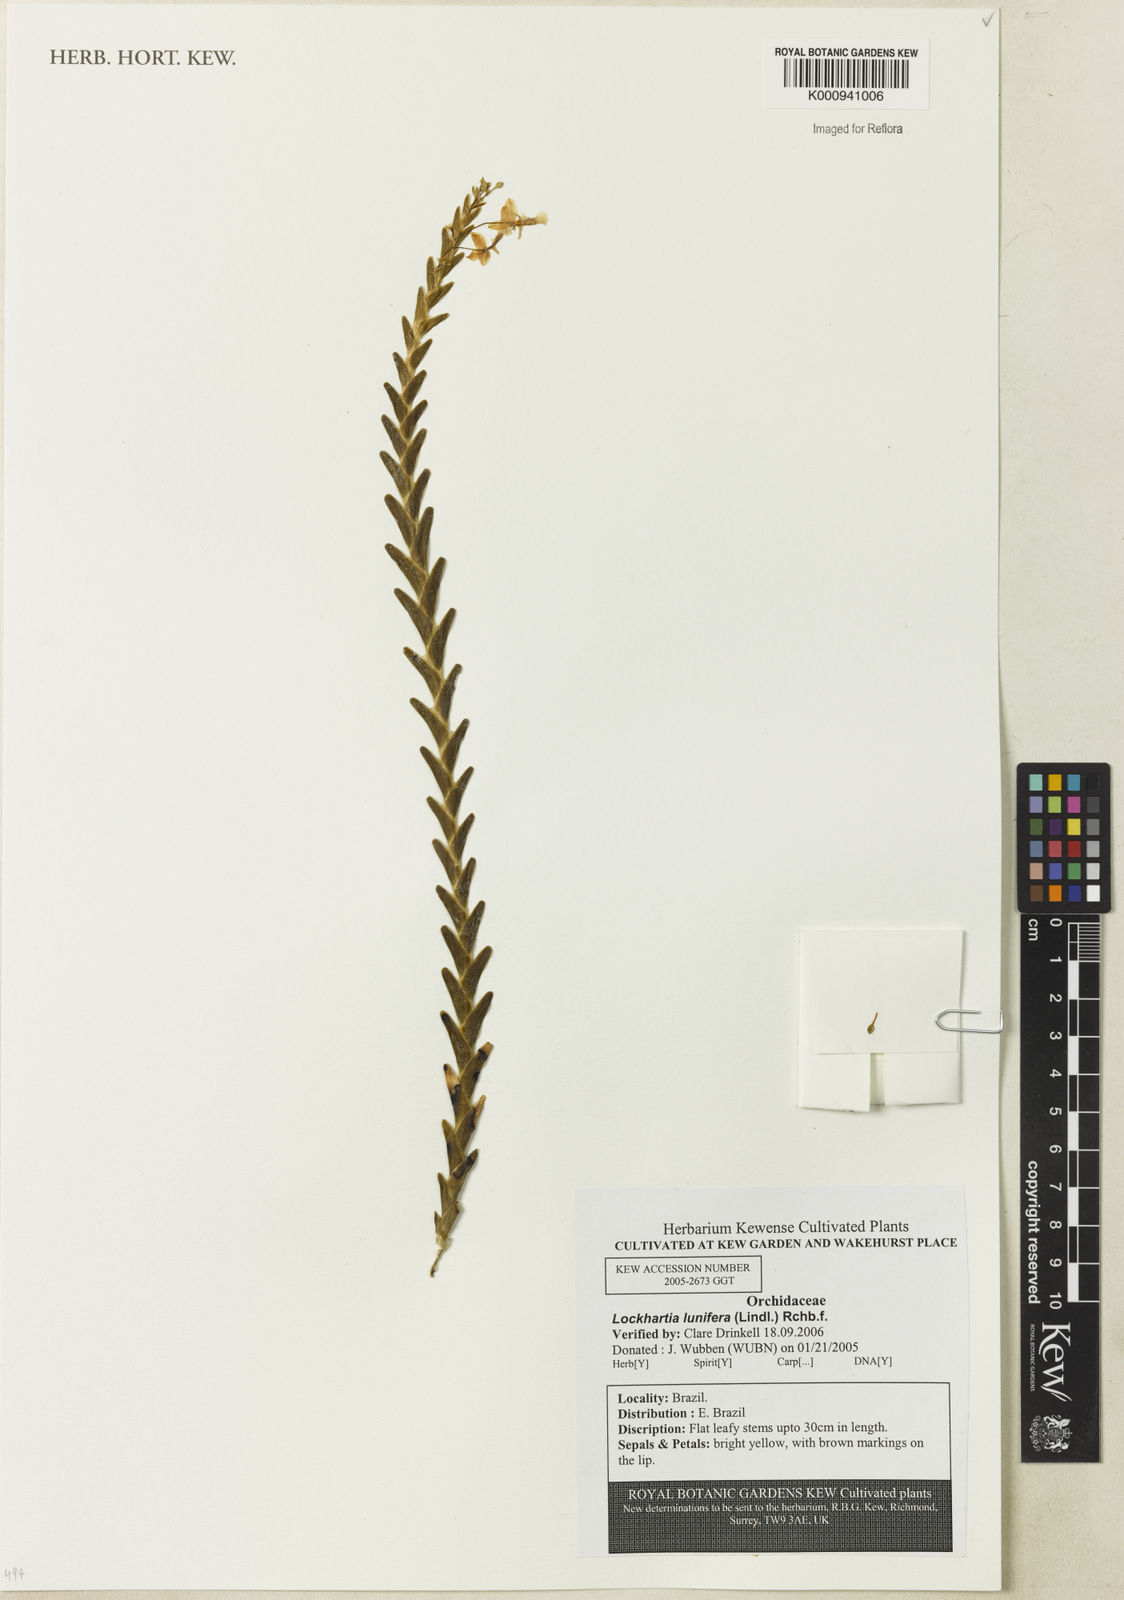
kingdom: Plantae
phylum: Tracheophyta
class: Liliopsida
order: Asparagales
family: Orchidaceae
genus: Lockhartia
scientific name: Lockhartia lunifera
